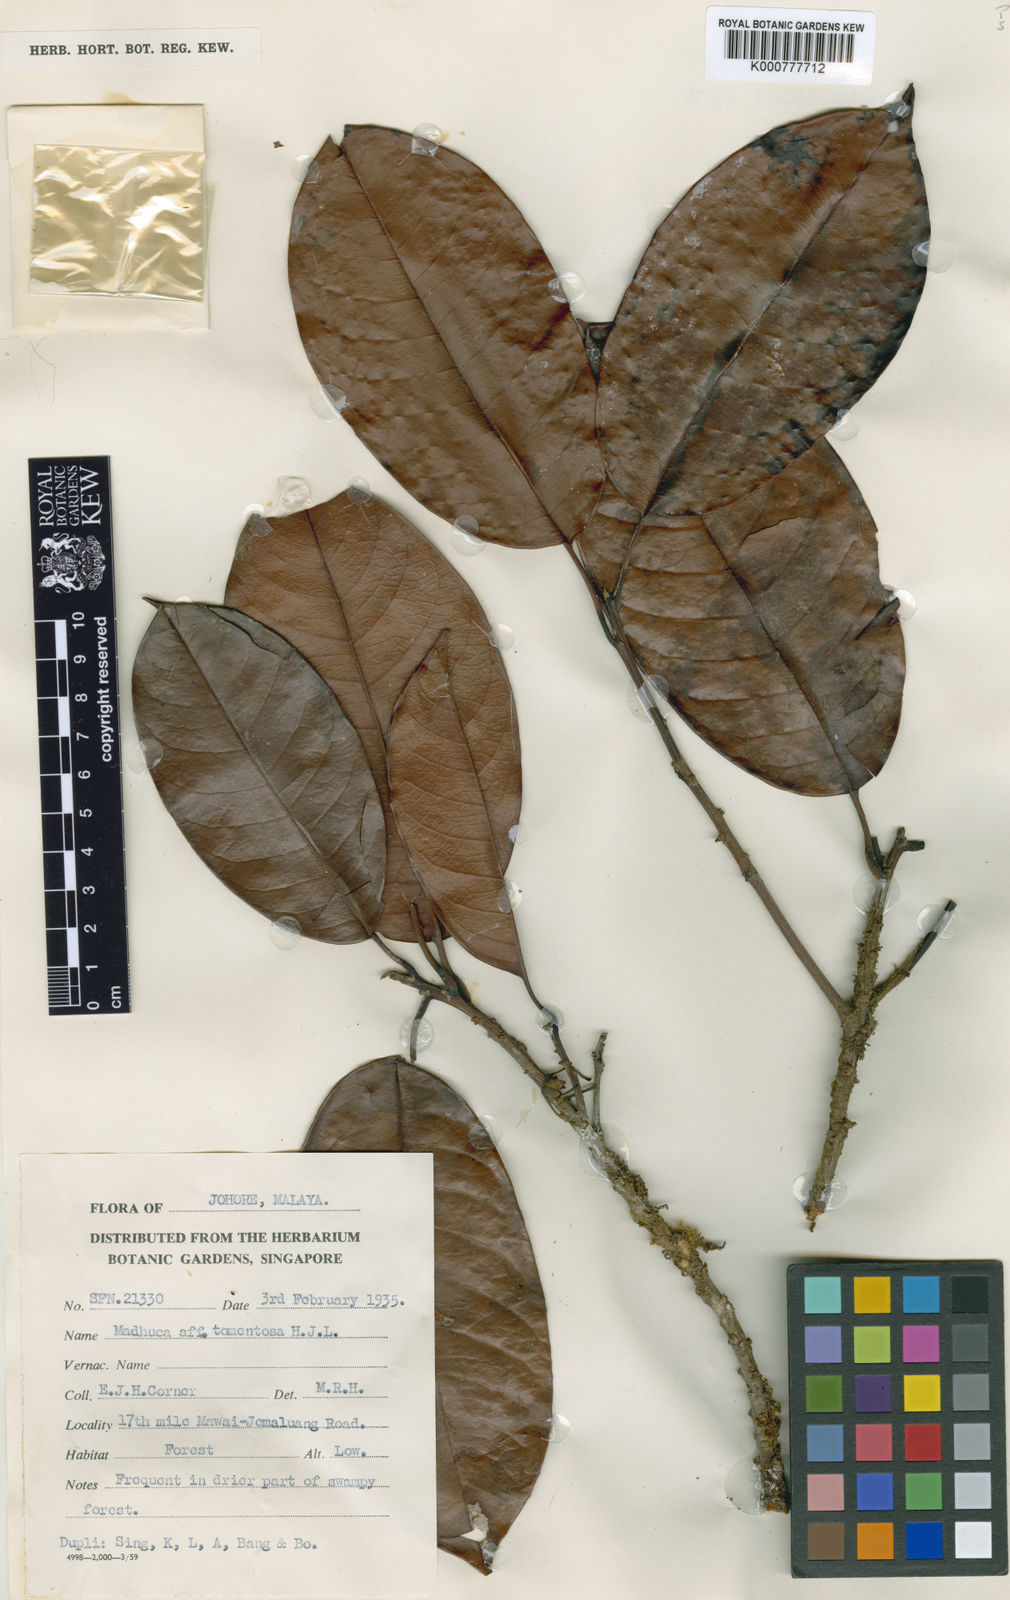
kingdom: Plantae
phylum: Tracheophyta
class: Magnoliopsida
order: Ericales
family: Sapotaceae
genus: Madhuca
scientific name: Madhuca tomentosa
